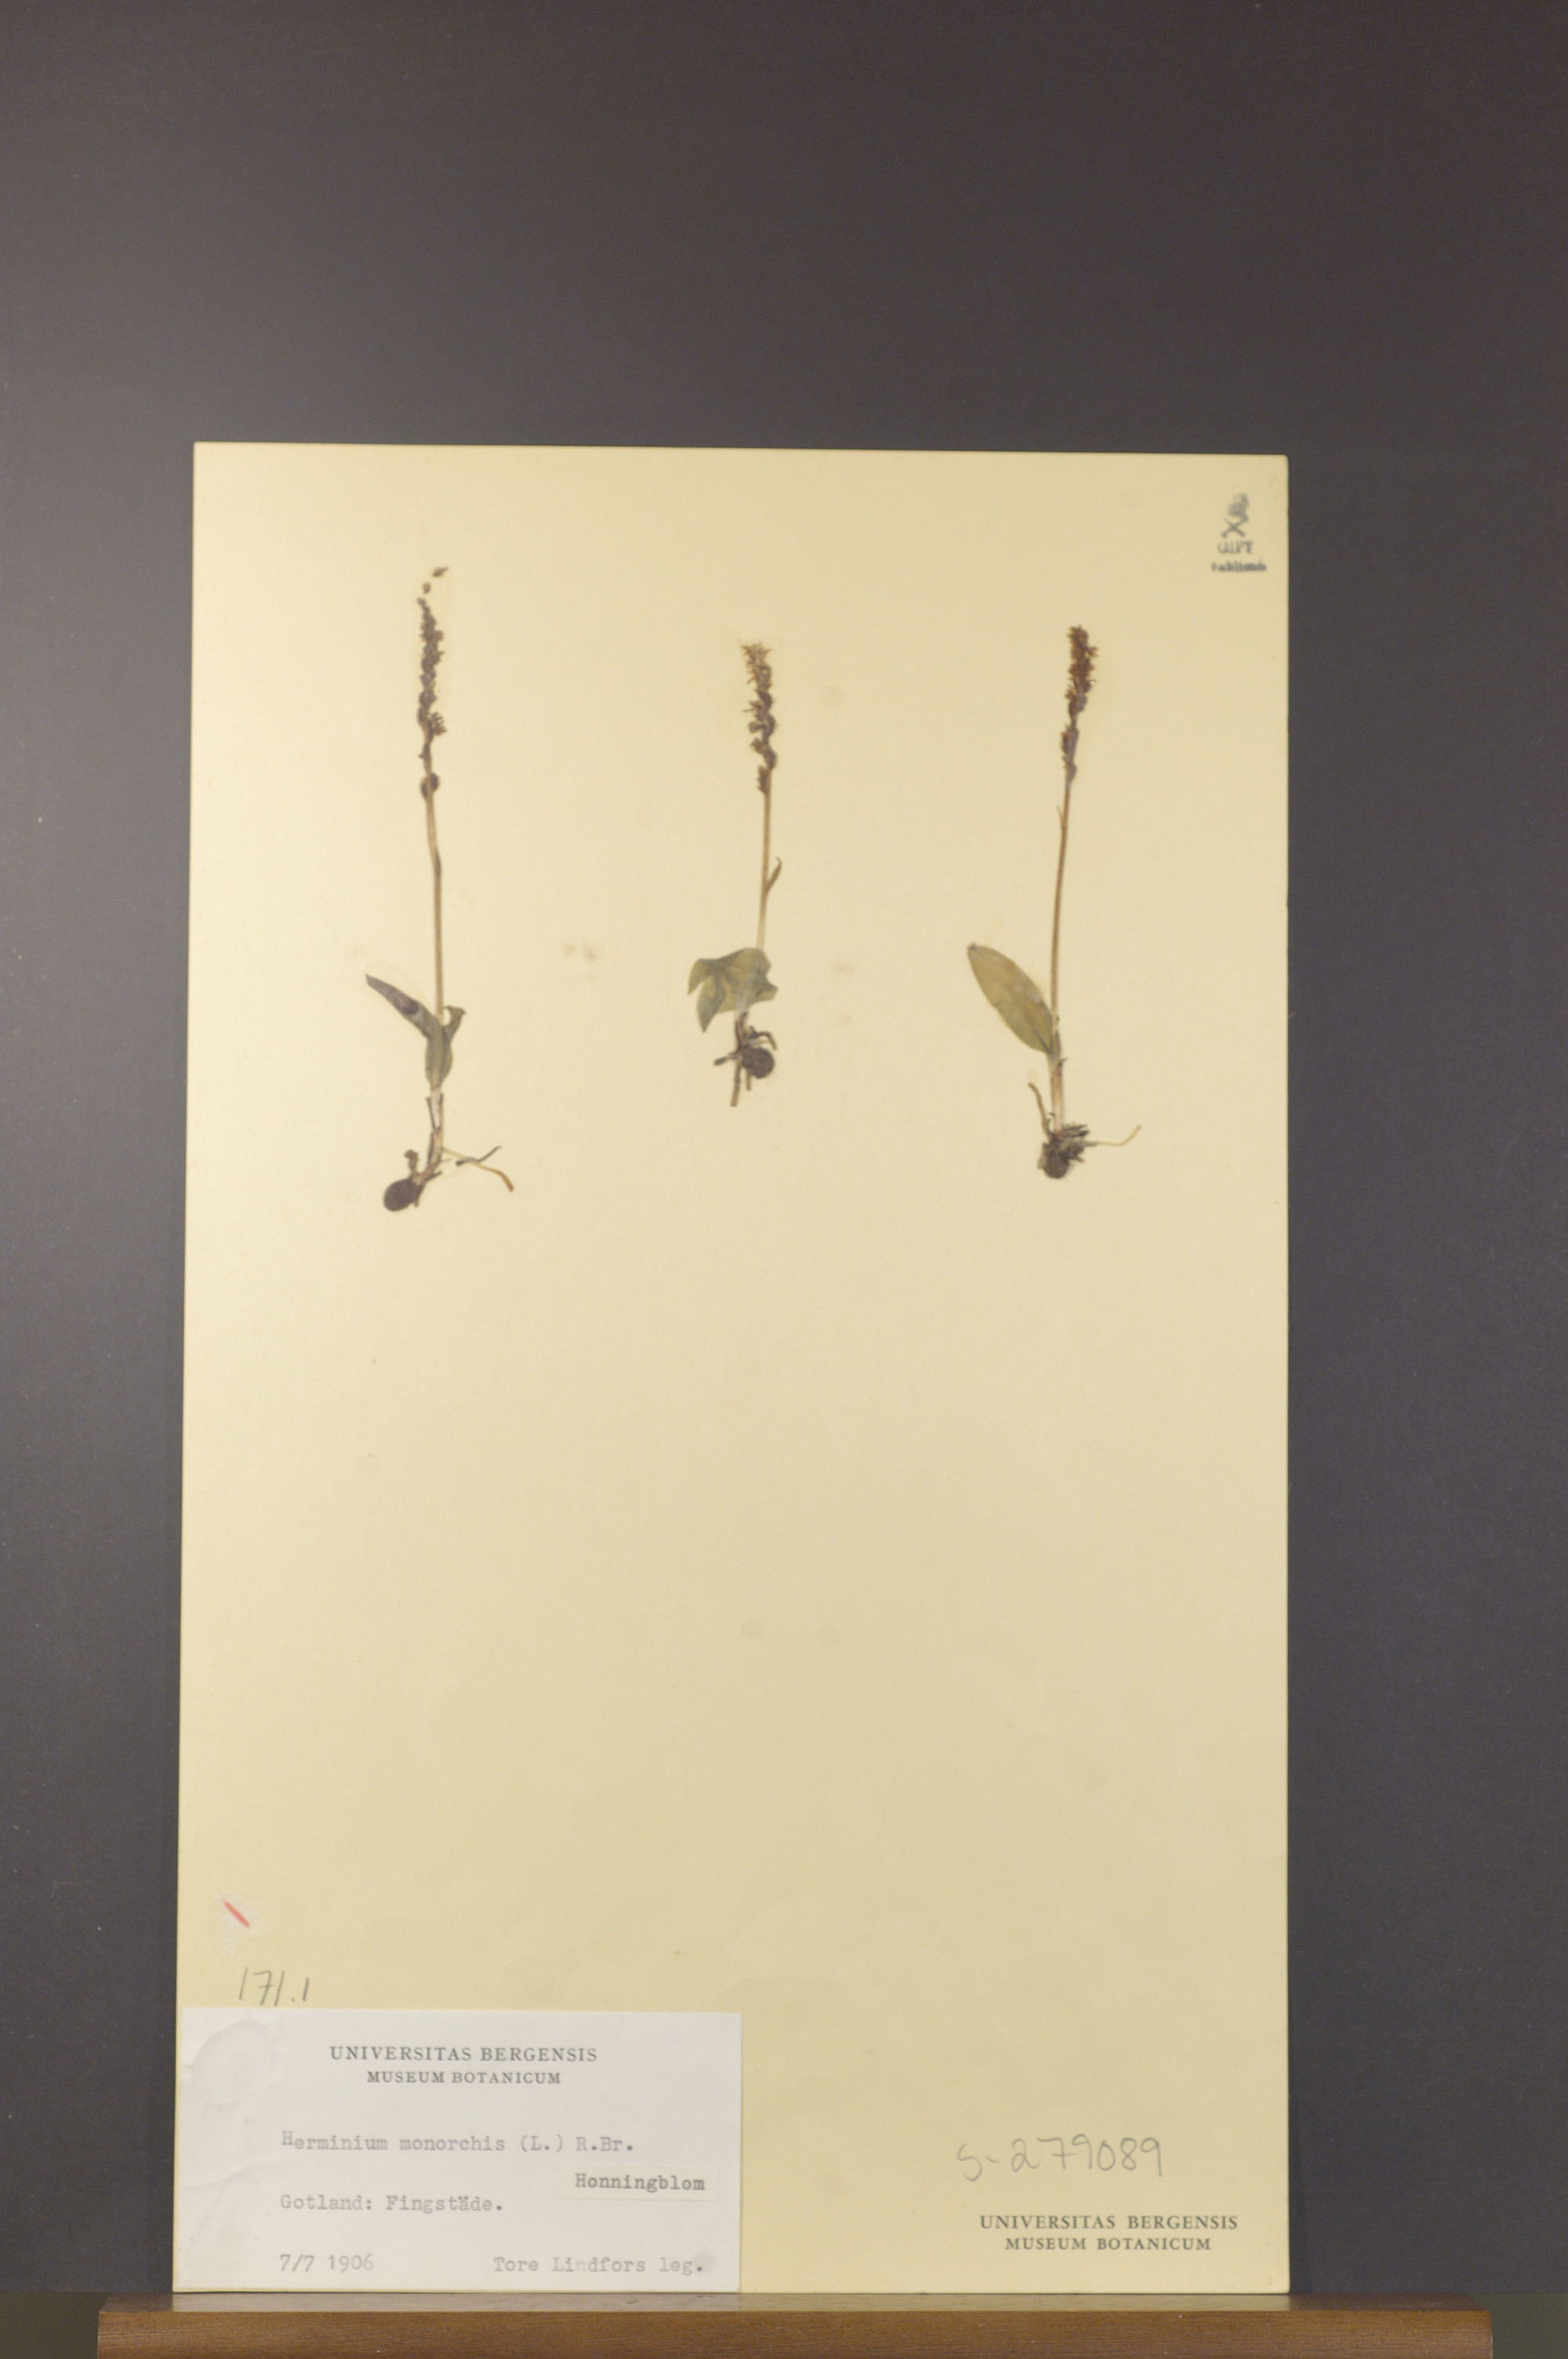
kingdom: Plantae
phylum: Tracheophyta
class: Liliopsida
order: Asparagales
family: Orchidaceae
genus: Herminium
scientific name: Herminium monorchis
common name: Musk orchid
